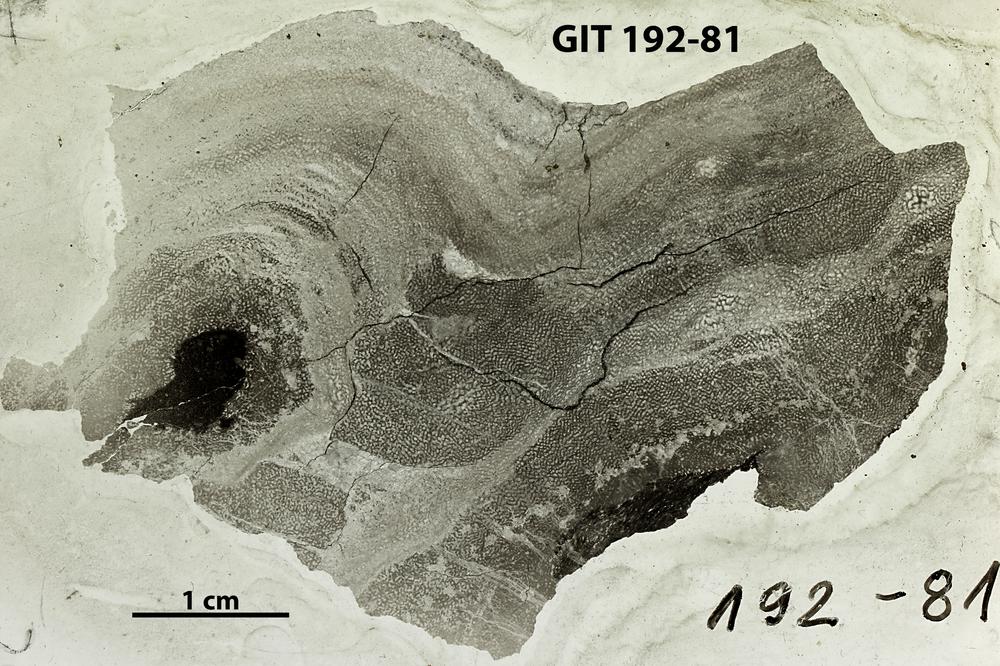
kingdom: Animalia
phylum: Porifera
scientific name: Porifera
